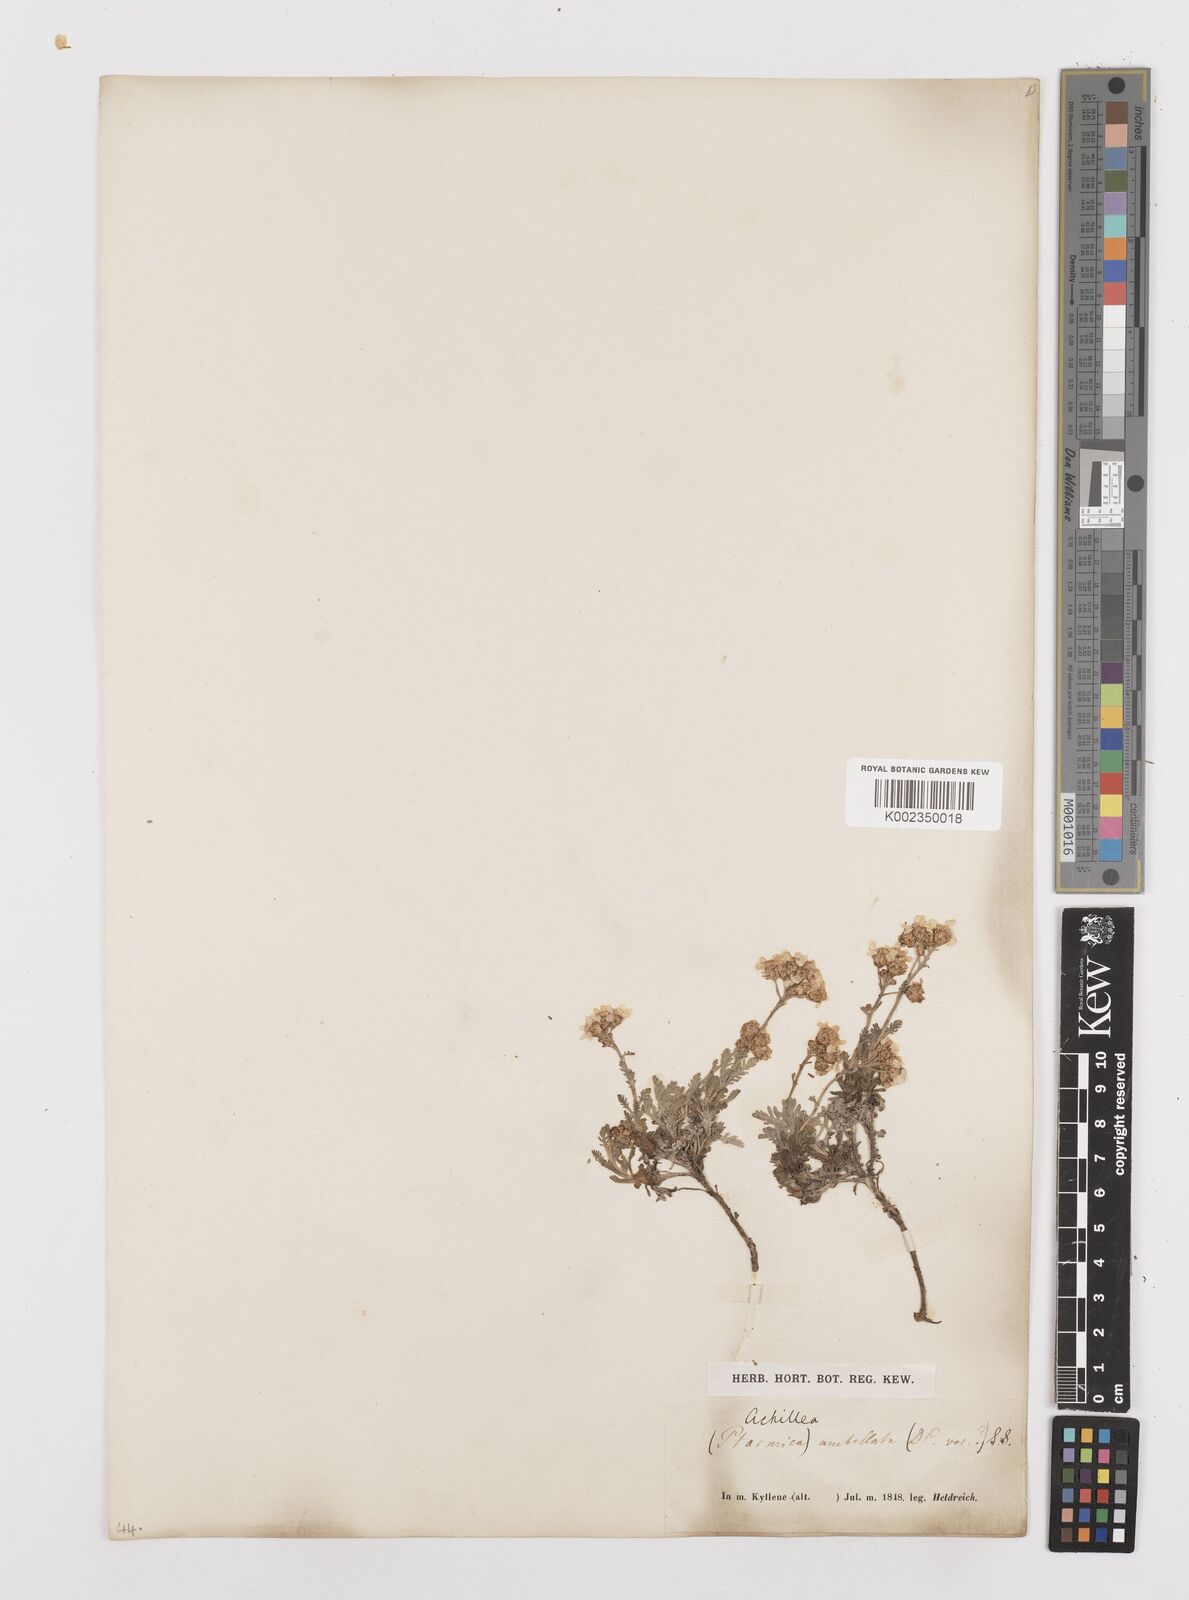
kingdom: Plantae
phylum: Tracheophyta
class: Magnoliopsida
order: Asterales
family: Asteraceae
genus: Achillea
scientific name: Achillea umbellata
